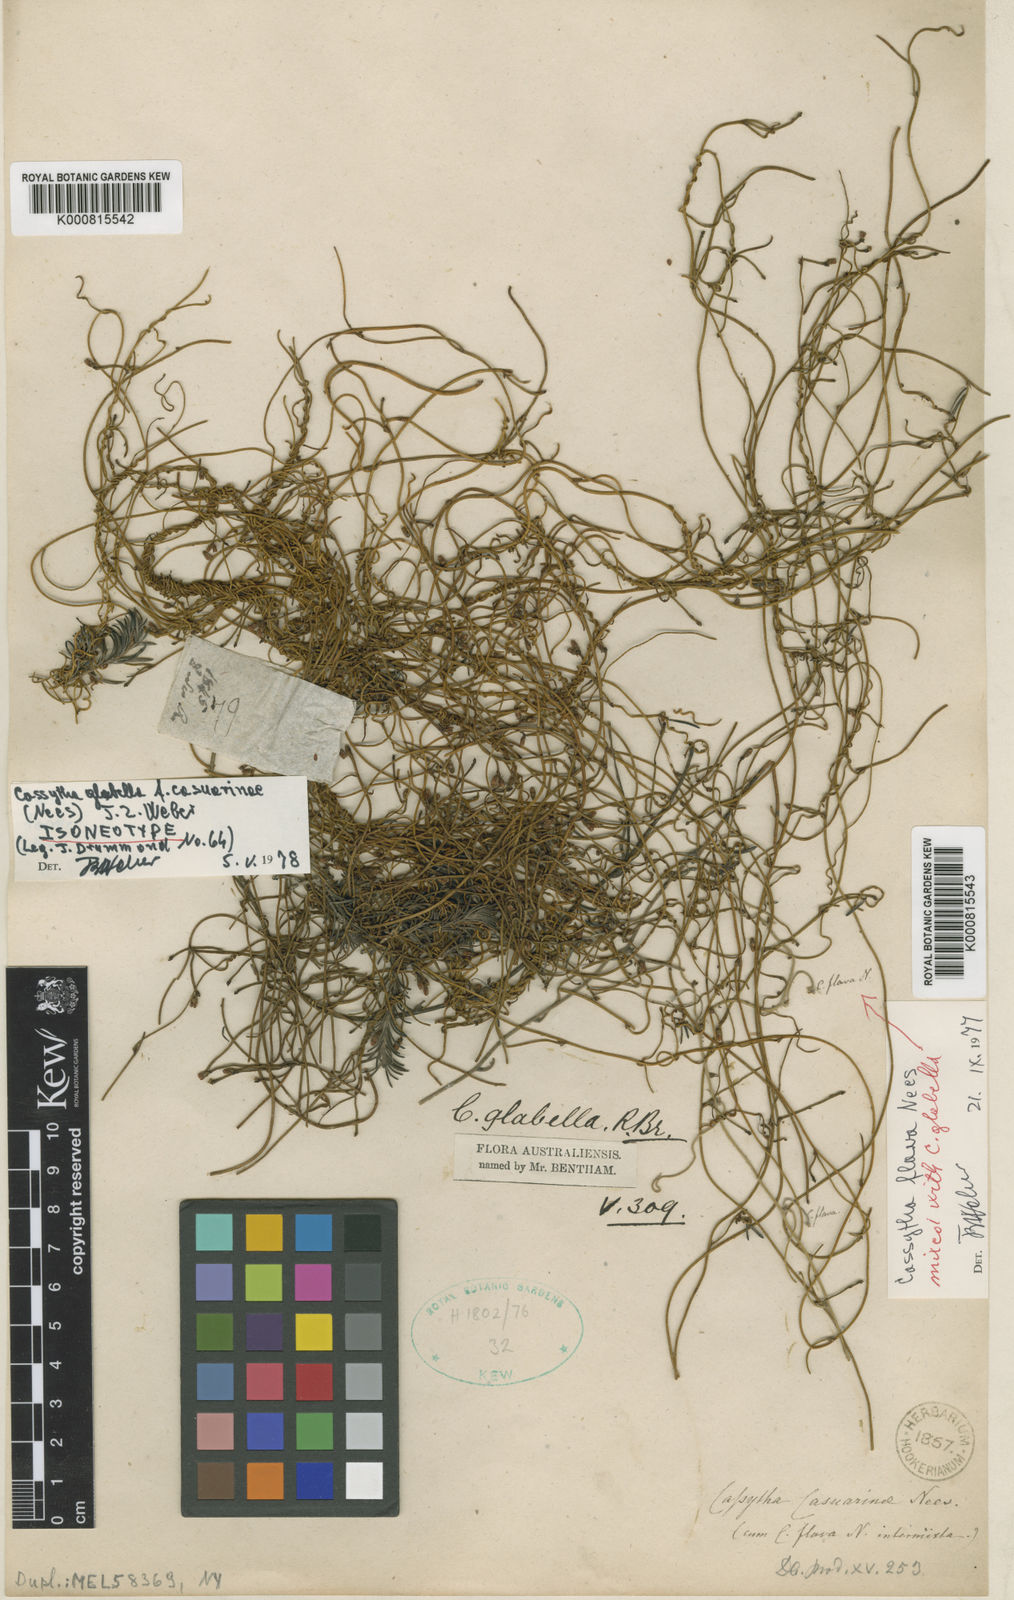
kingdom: Plantae
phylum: Tracheophyta
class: Magnoliopsida
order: Laurales
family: Lauraceae
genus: Cassytha
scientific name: Cassytha glabella
